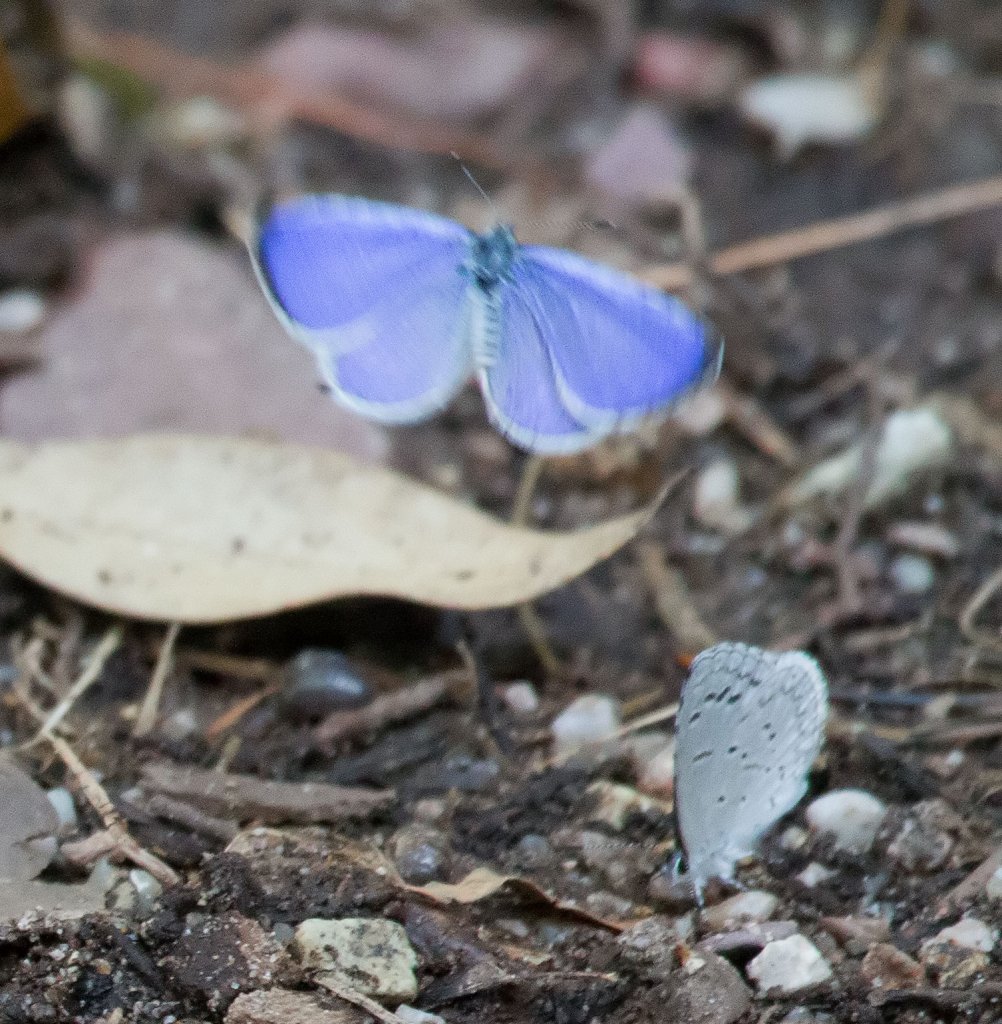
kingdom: Animalia
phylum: Arthropoda
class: Insecta
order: Lepidoptera
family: Lycaenidae
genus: Celastrina
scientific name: Celastrina ladon
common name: Spring Azure
